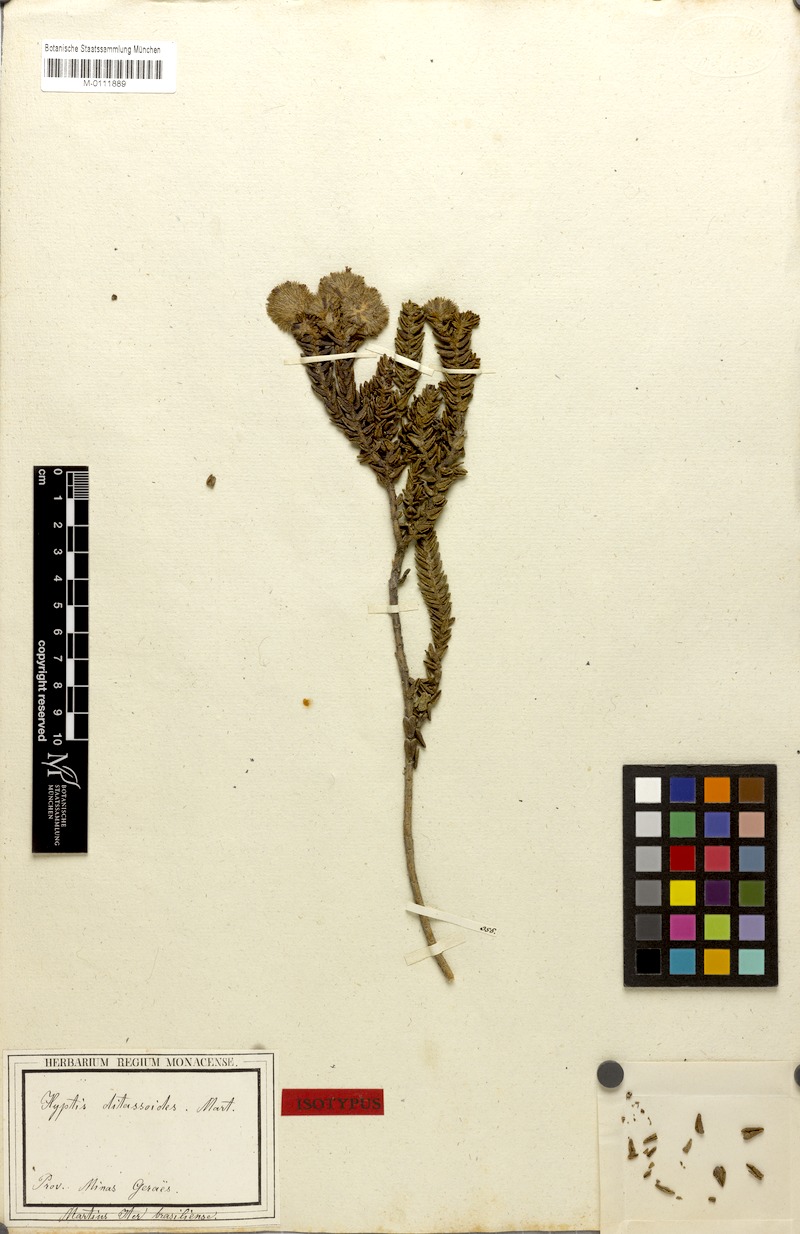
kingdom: Plantae
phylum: Tracheophyta
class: Magnoliopsida
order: Lamiales
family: Lamiaceae
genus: Hyptis
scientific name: Hyptis ditassoides
